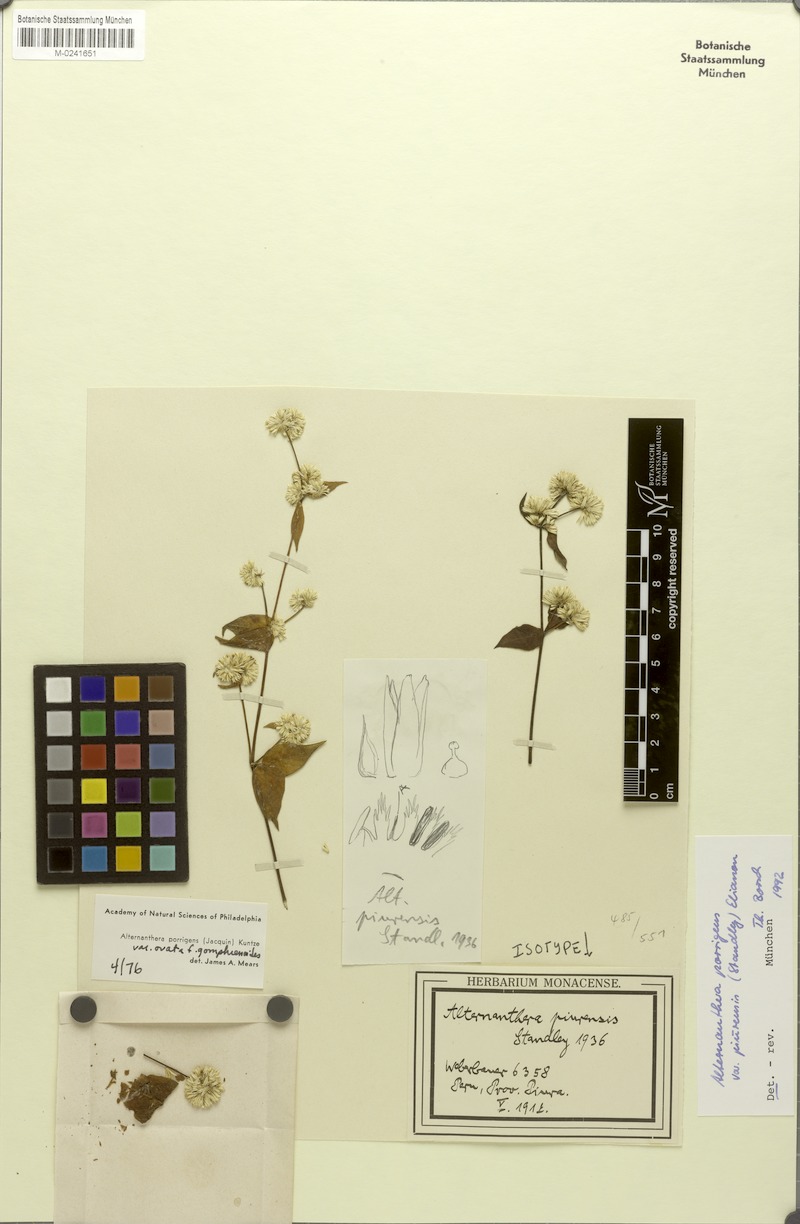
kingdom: Plantae
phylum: Tracheophyta
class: Magnoliopsida
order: Caryophyllales
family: Amaranthaceae
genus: Alternanthera
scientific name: Alternanthera porrigens
